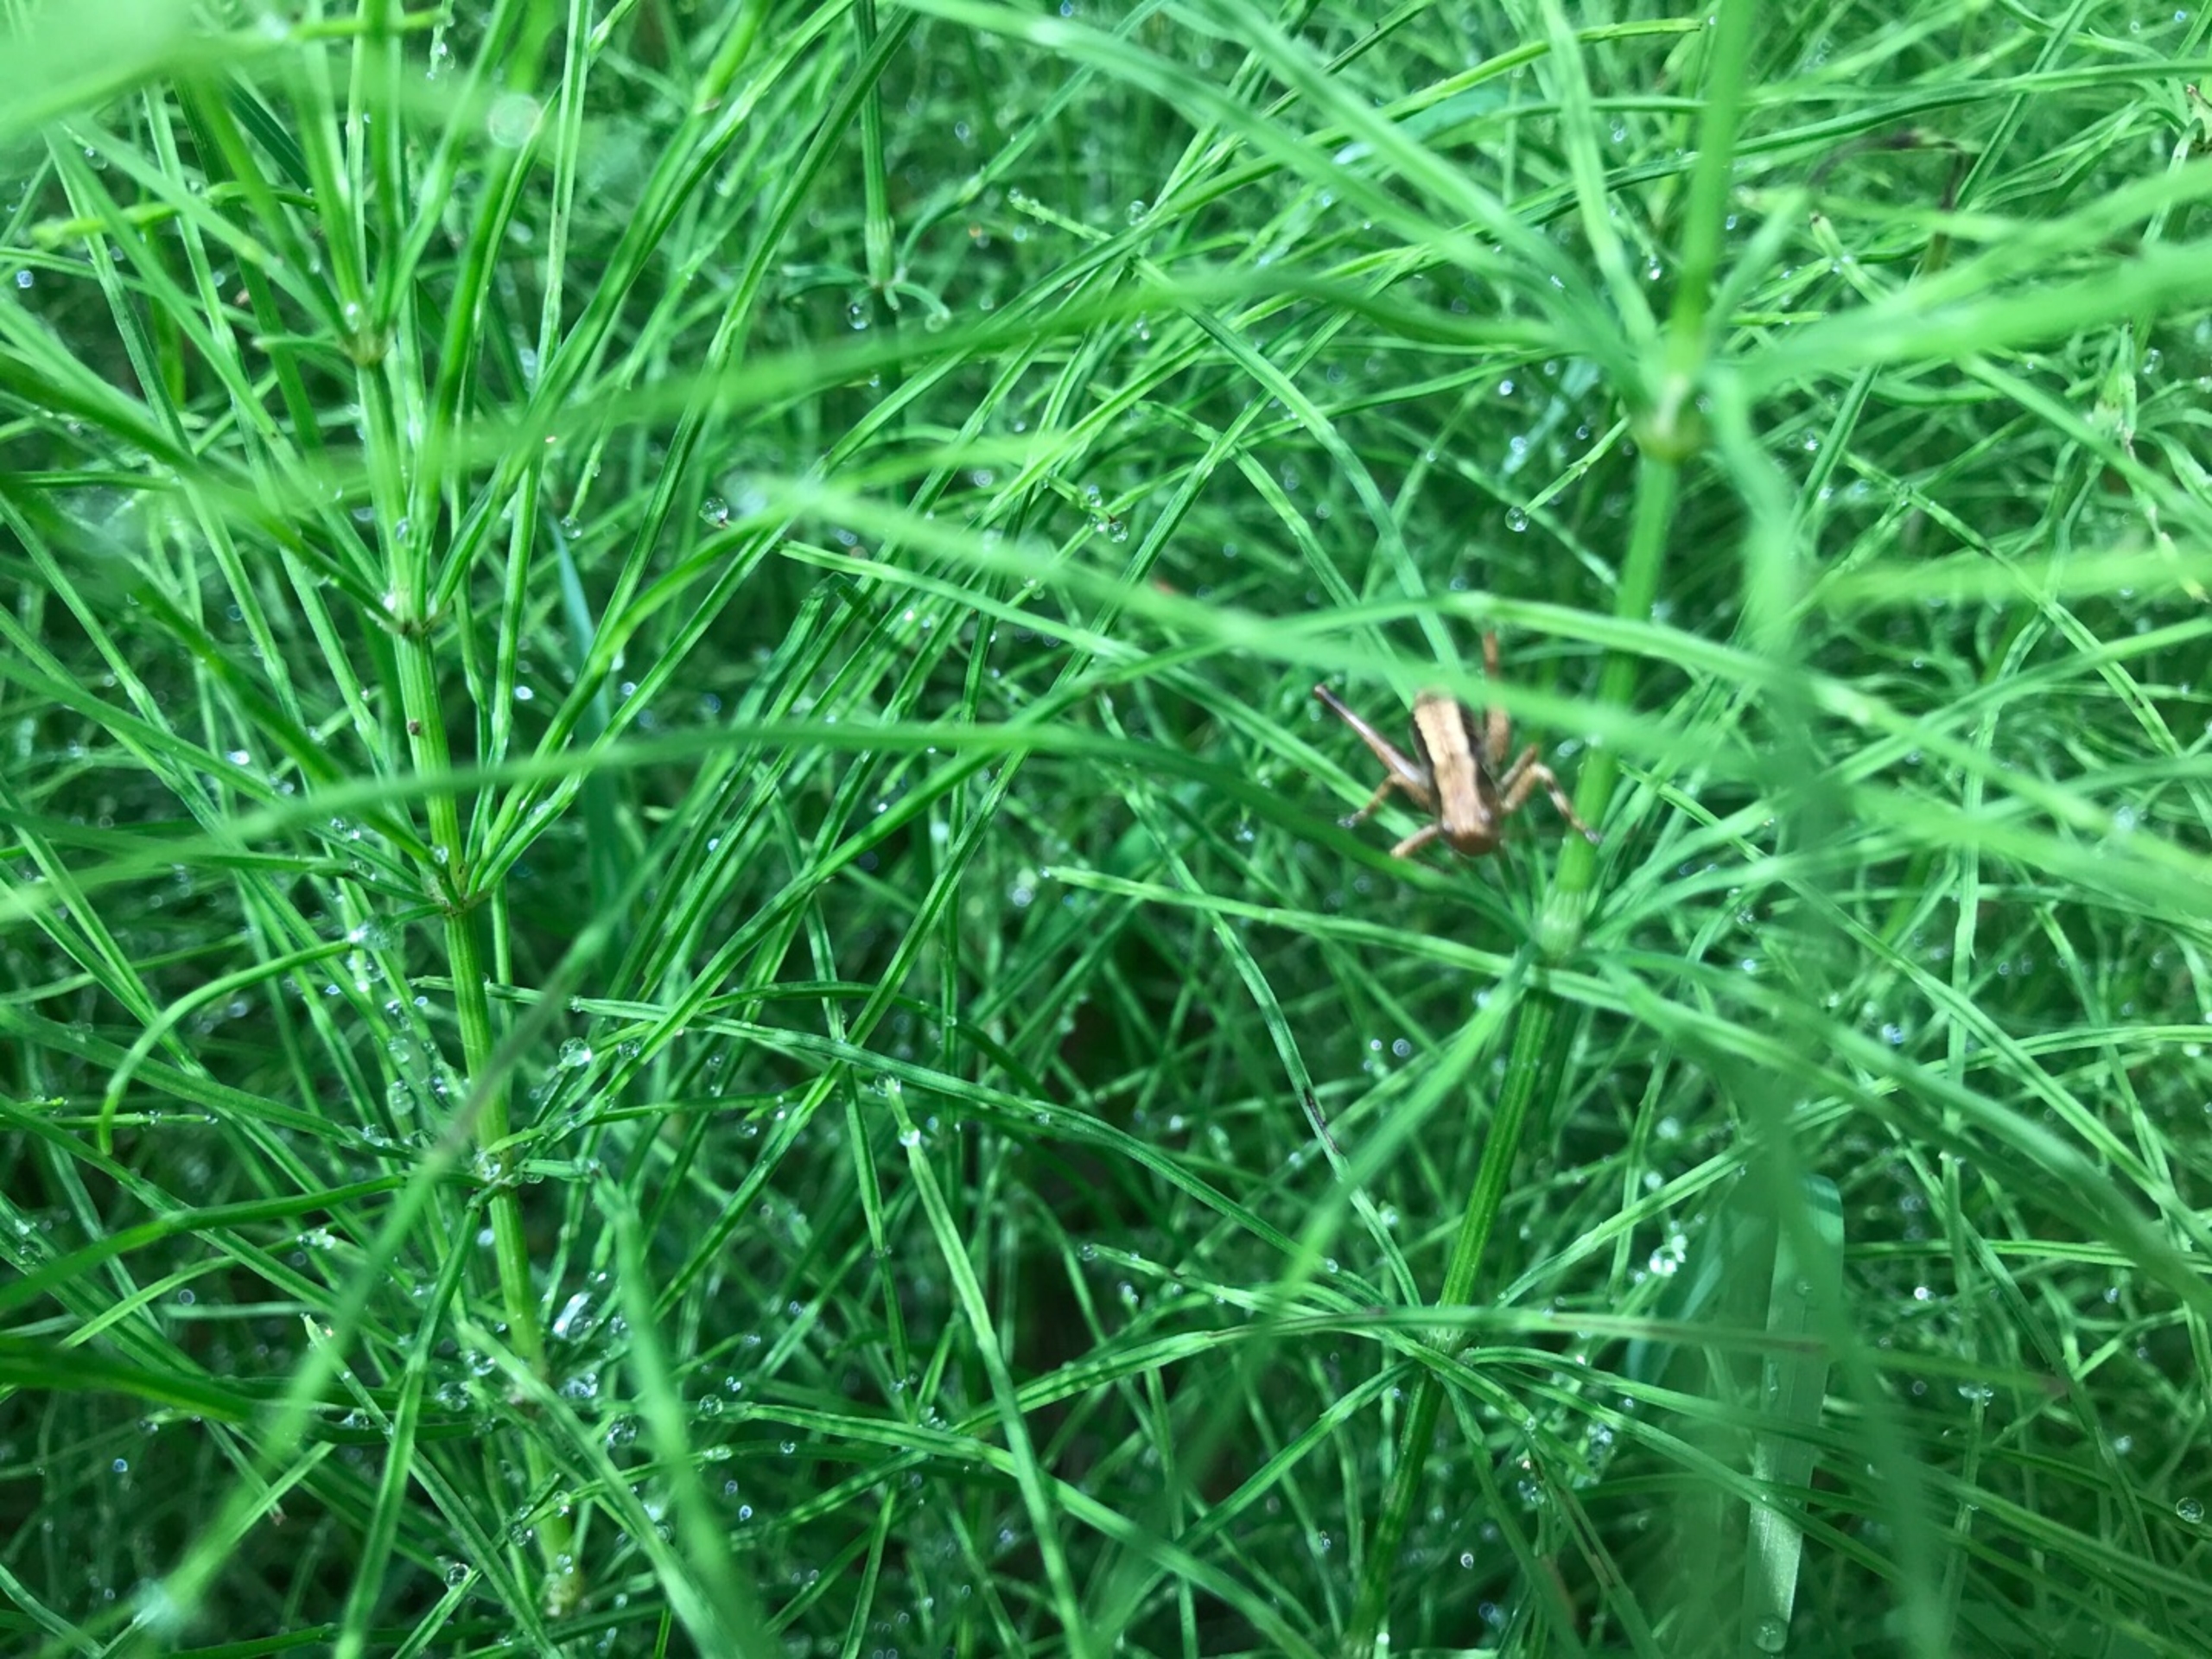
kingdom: Animalia
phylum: Arthropoda
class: Insecta
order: Orthoptera
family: Tettigoniidae
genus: Pholidoptera
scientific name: Pholidoptera griseoaptera
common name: Buskgræshoppe
